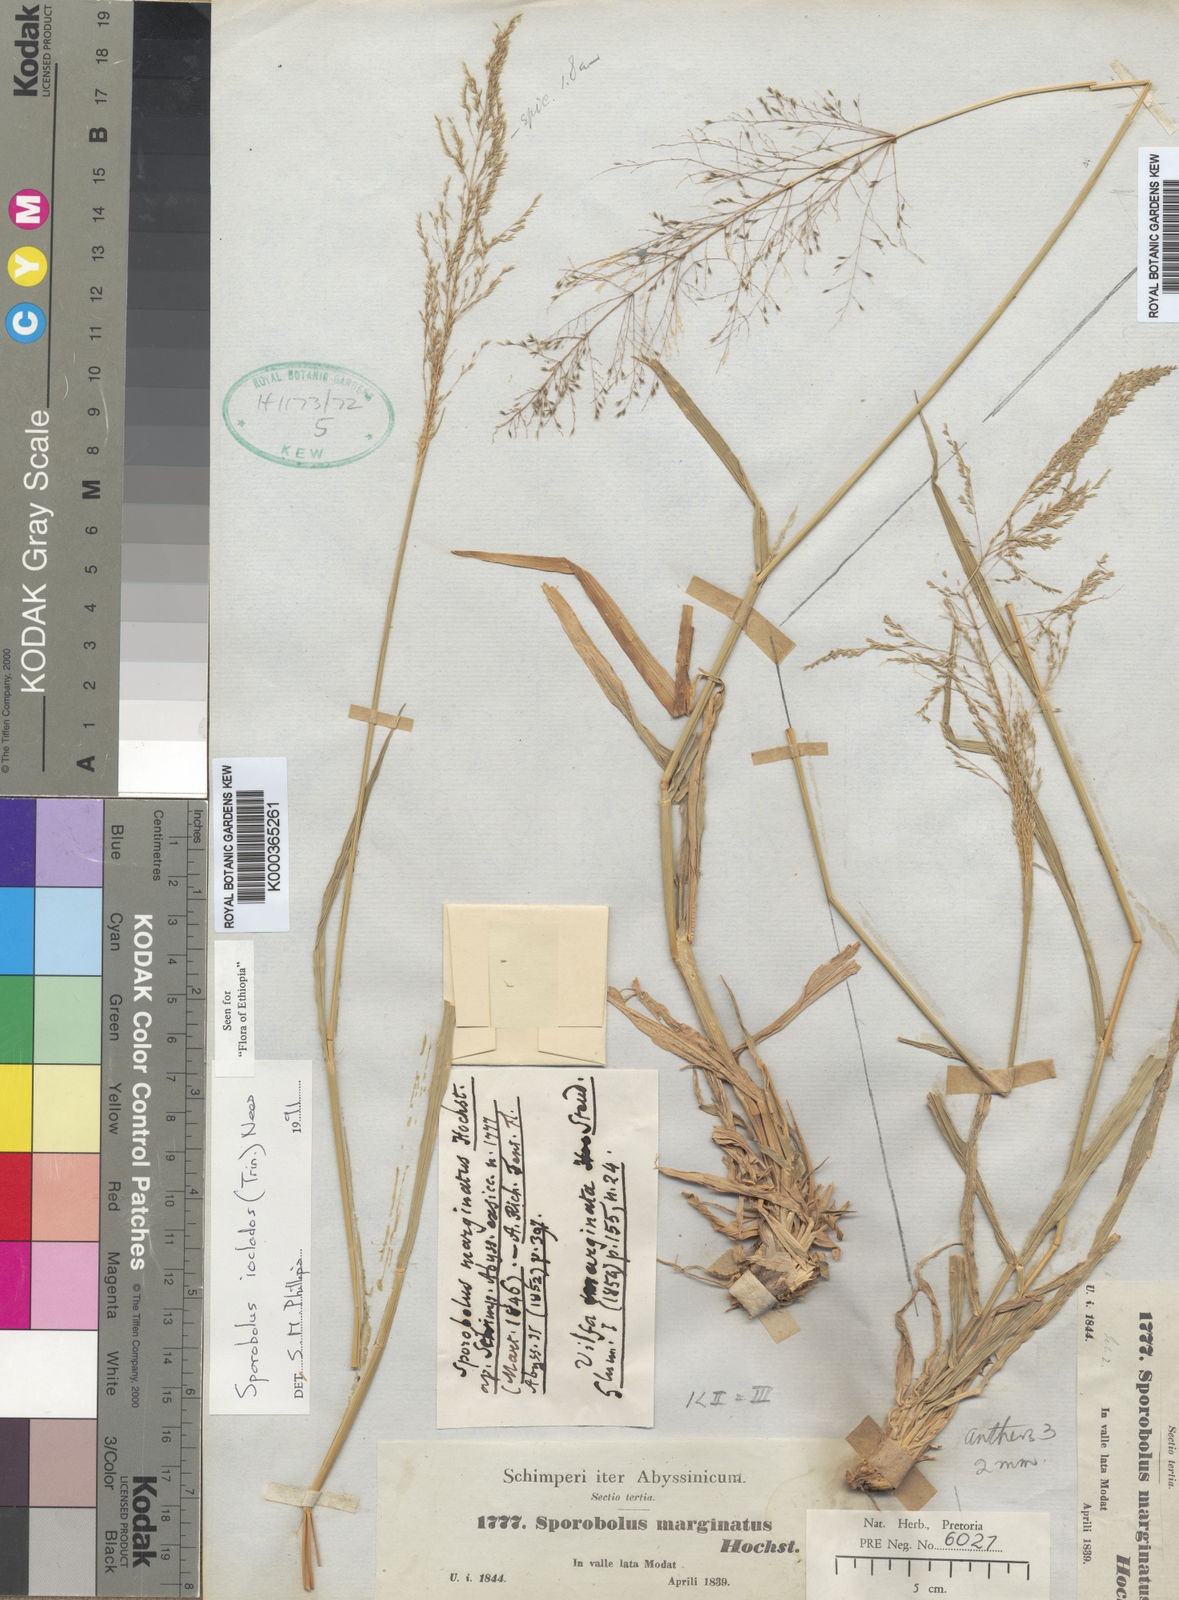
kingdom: Plantae
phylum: Tracheophyta
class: Liliopsida
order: Poales
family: Poaceae
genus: Sporobolus
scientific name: Sporobolus ioclados
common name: Pan dropseed
